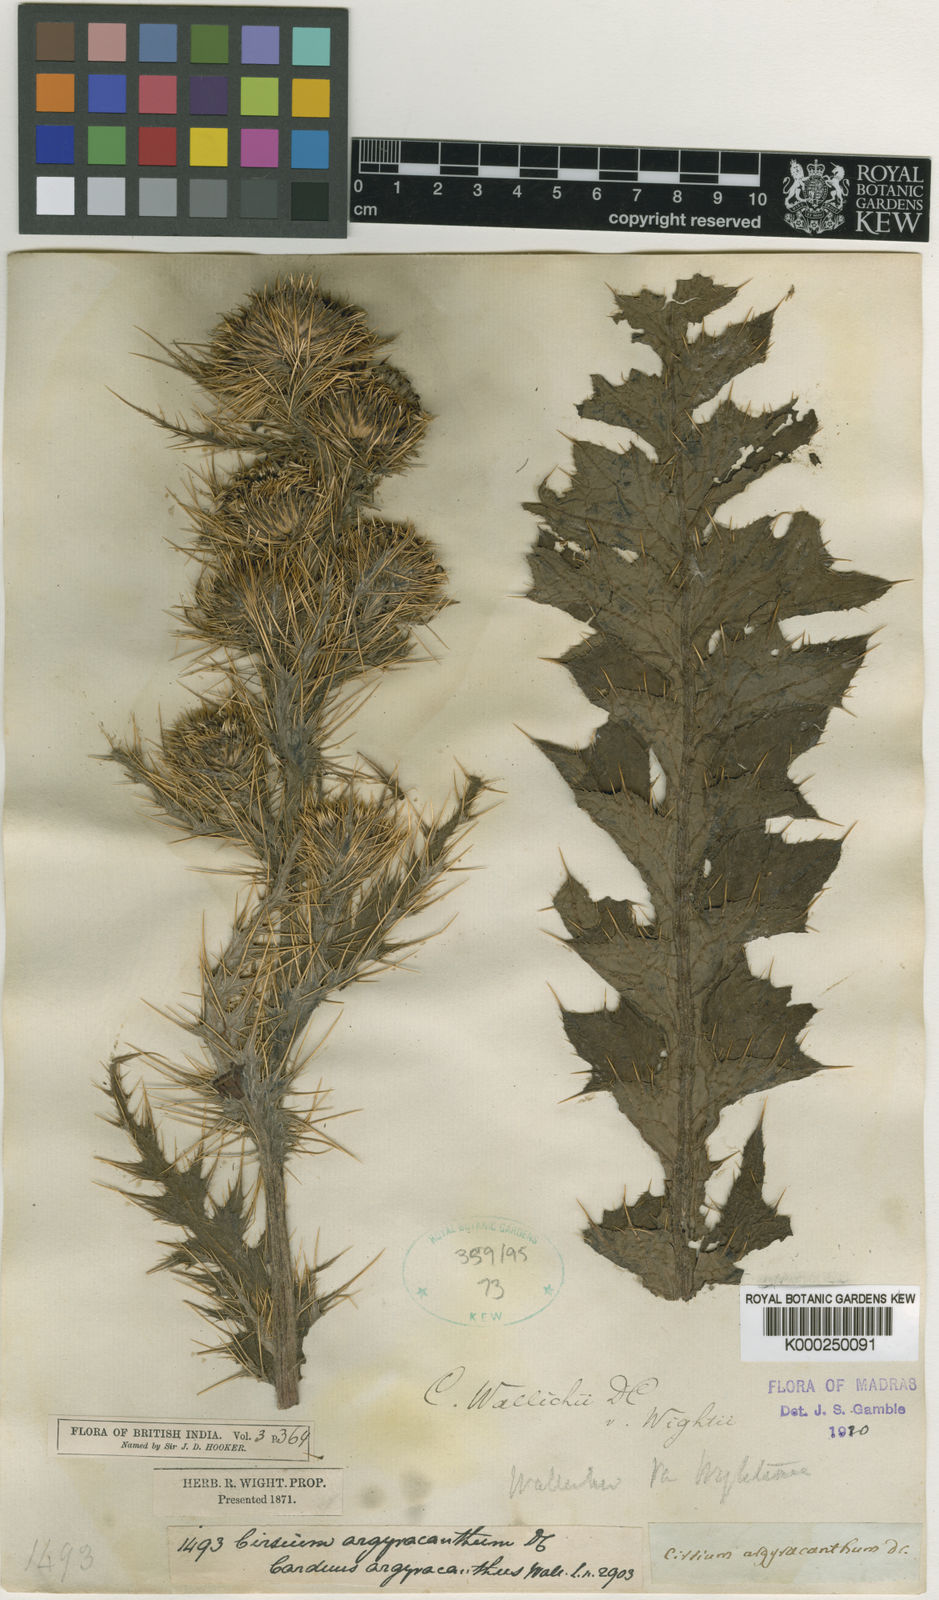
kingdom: Plantae
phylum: Tracheophyta
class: Magnoliopsida
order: Asterales
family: Asteraceae
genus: Cirsium
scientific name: Cirsium wallichii
